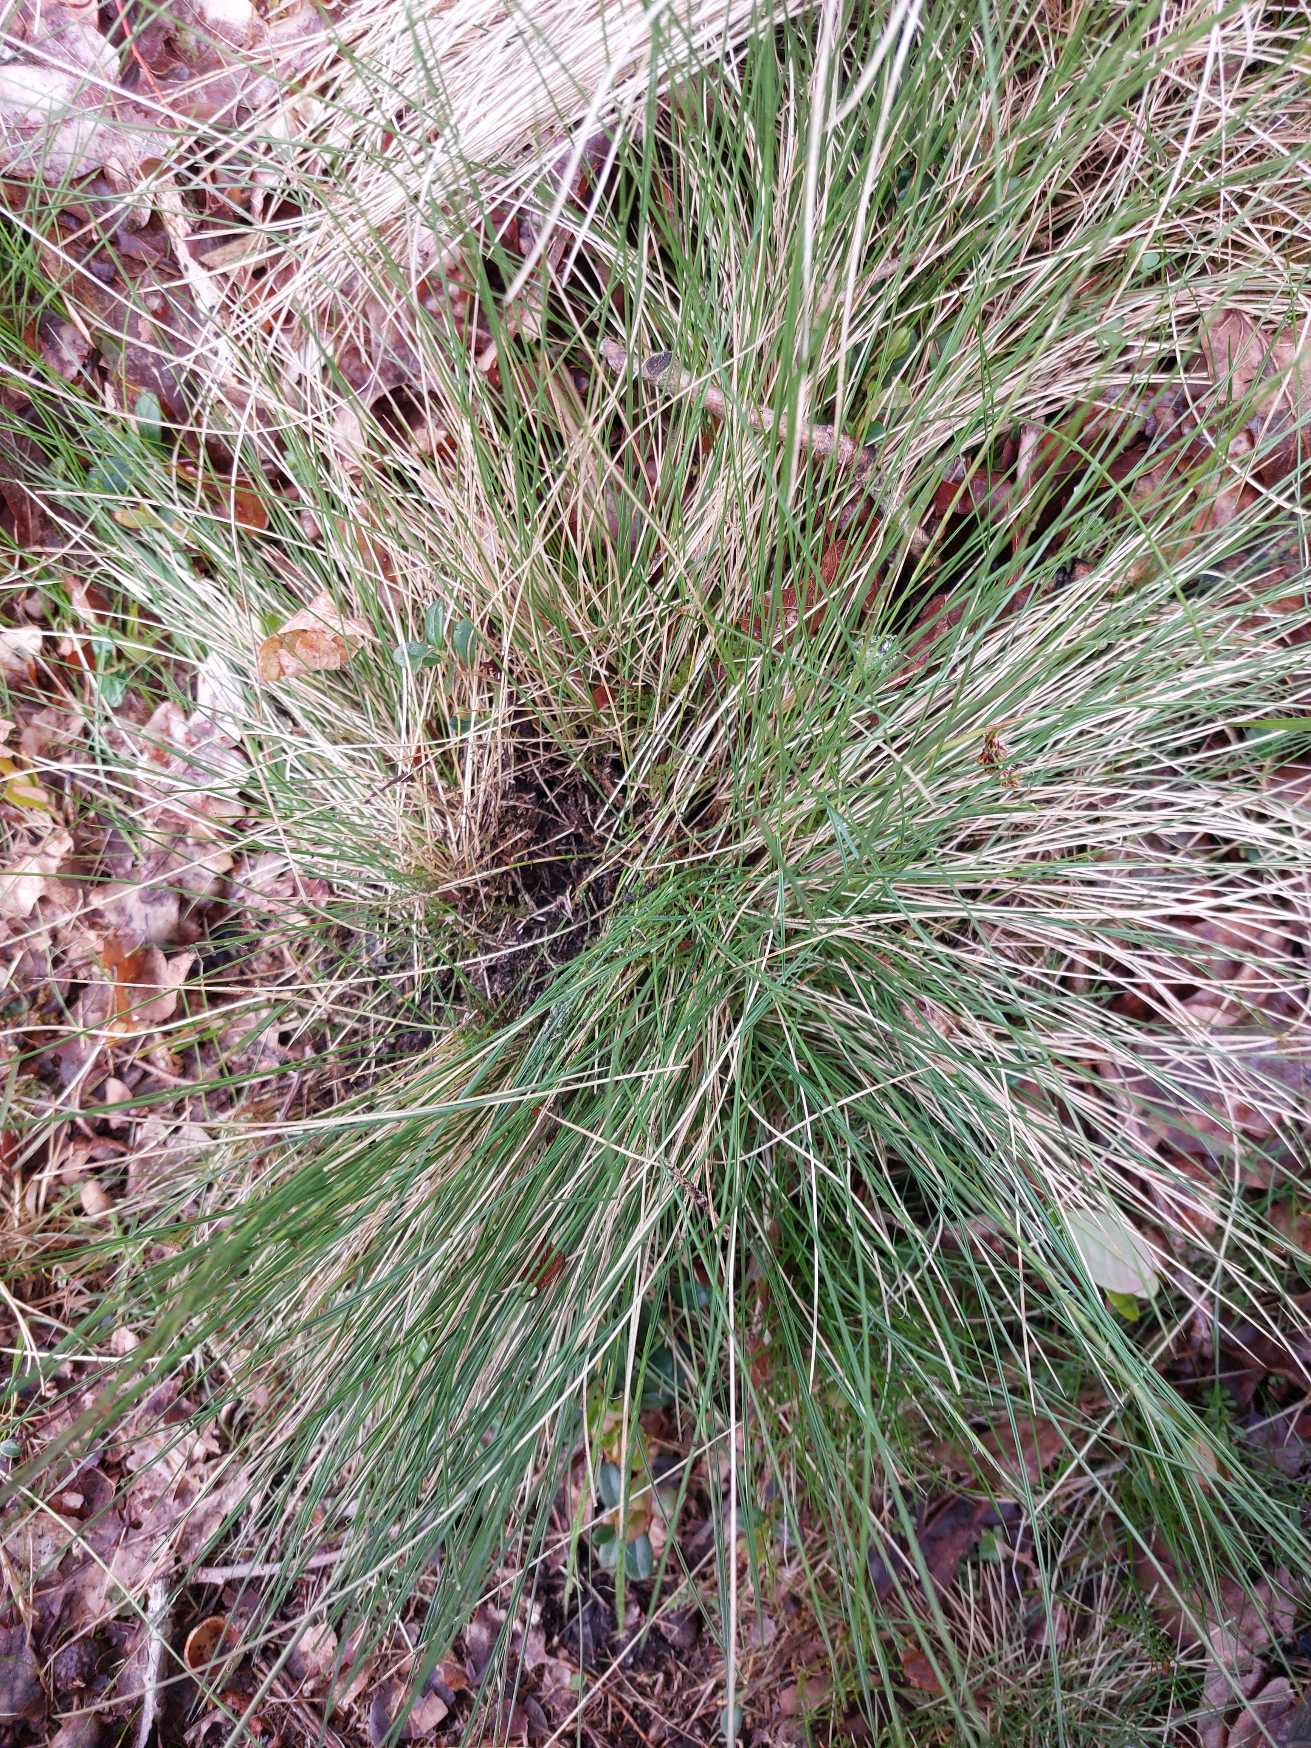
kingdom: Plantae
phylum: Tracheophyta
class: Liliopsida
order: Poales
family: Poaceae
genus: Nardus
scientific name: Nardus stricta
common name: Katteskæg
